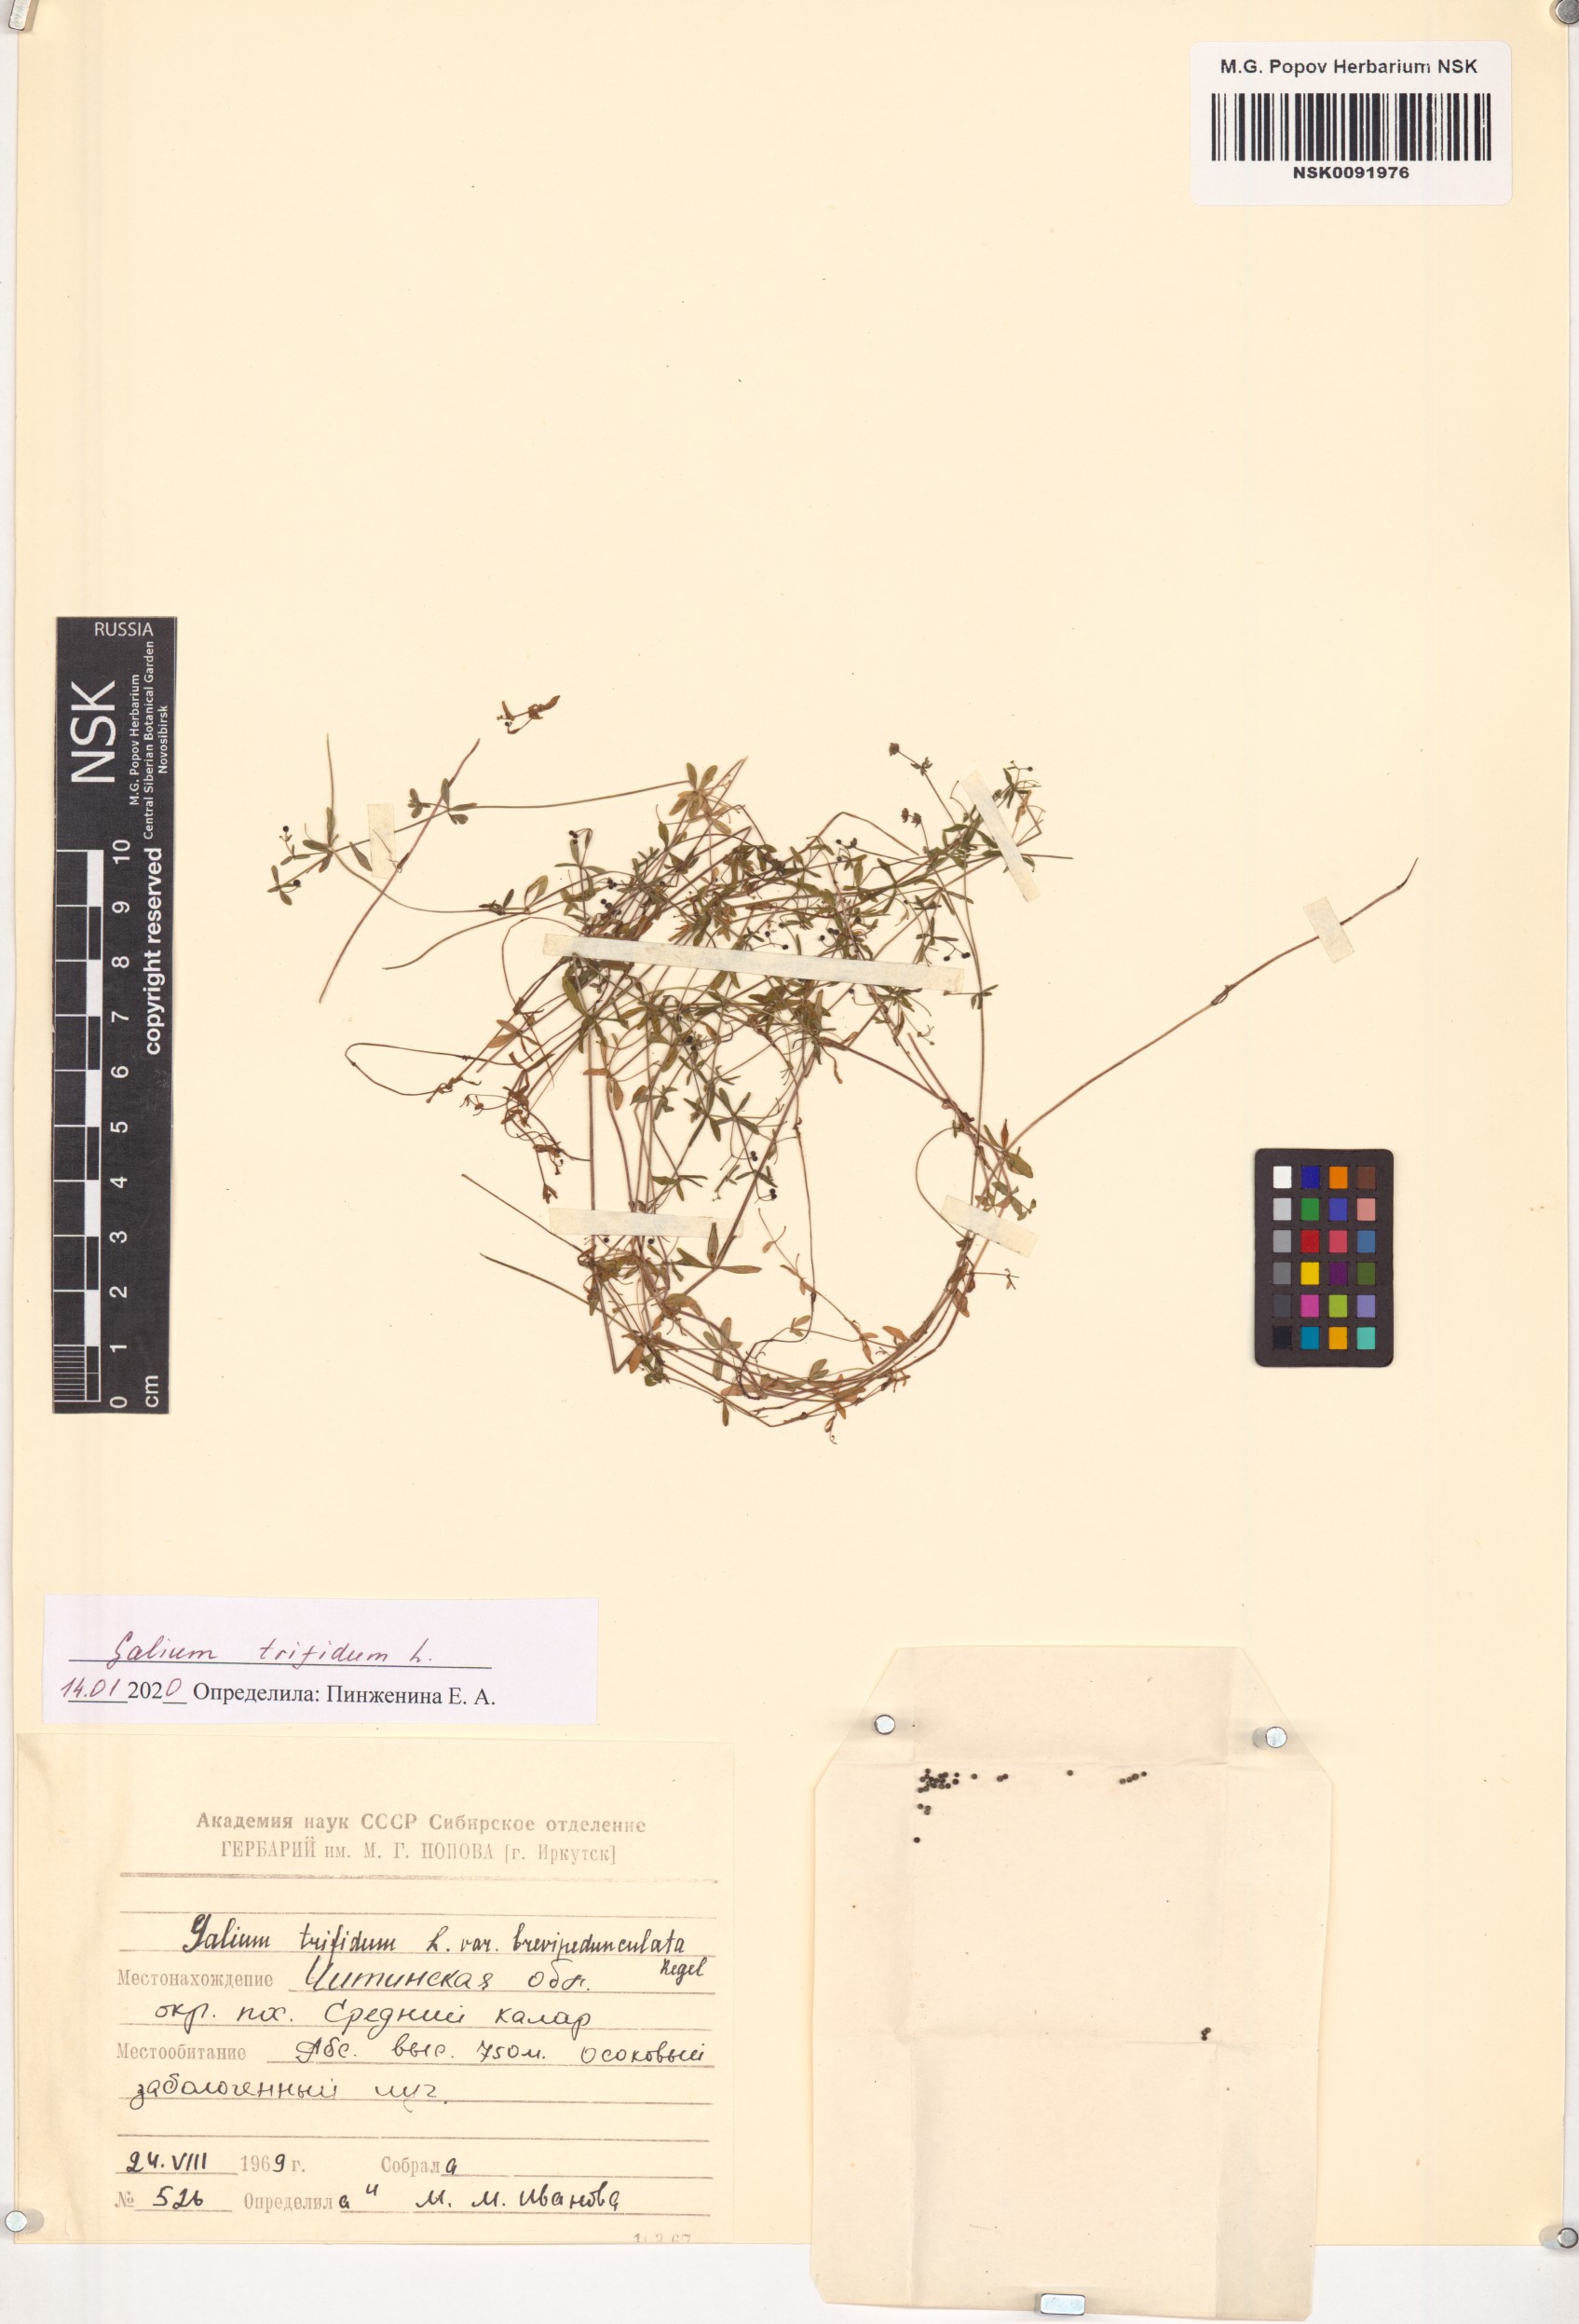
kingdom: Plantae
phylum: Tracheophyta
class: Magnoliopsida
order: Gentianales
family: Rubiaceae
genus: Galium
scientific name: Galium trifidum
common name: Small bedstraw
